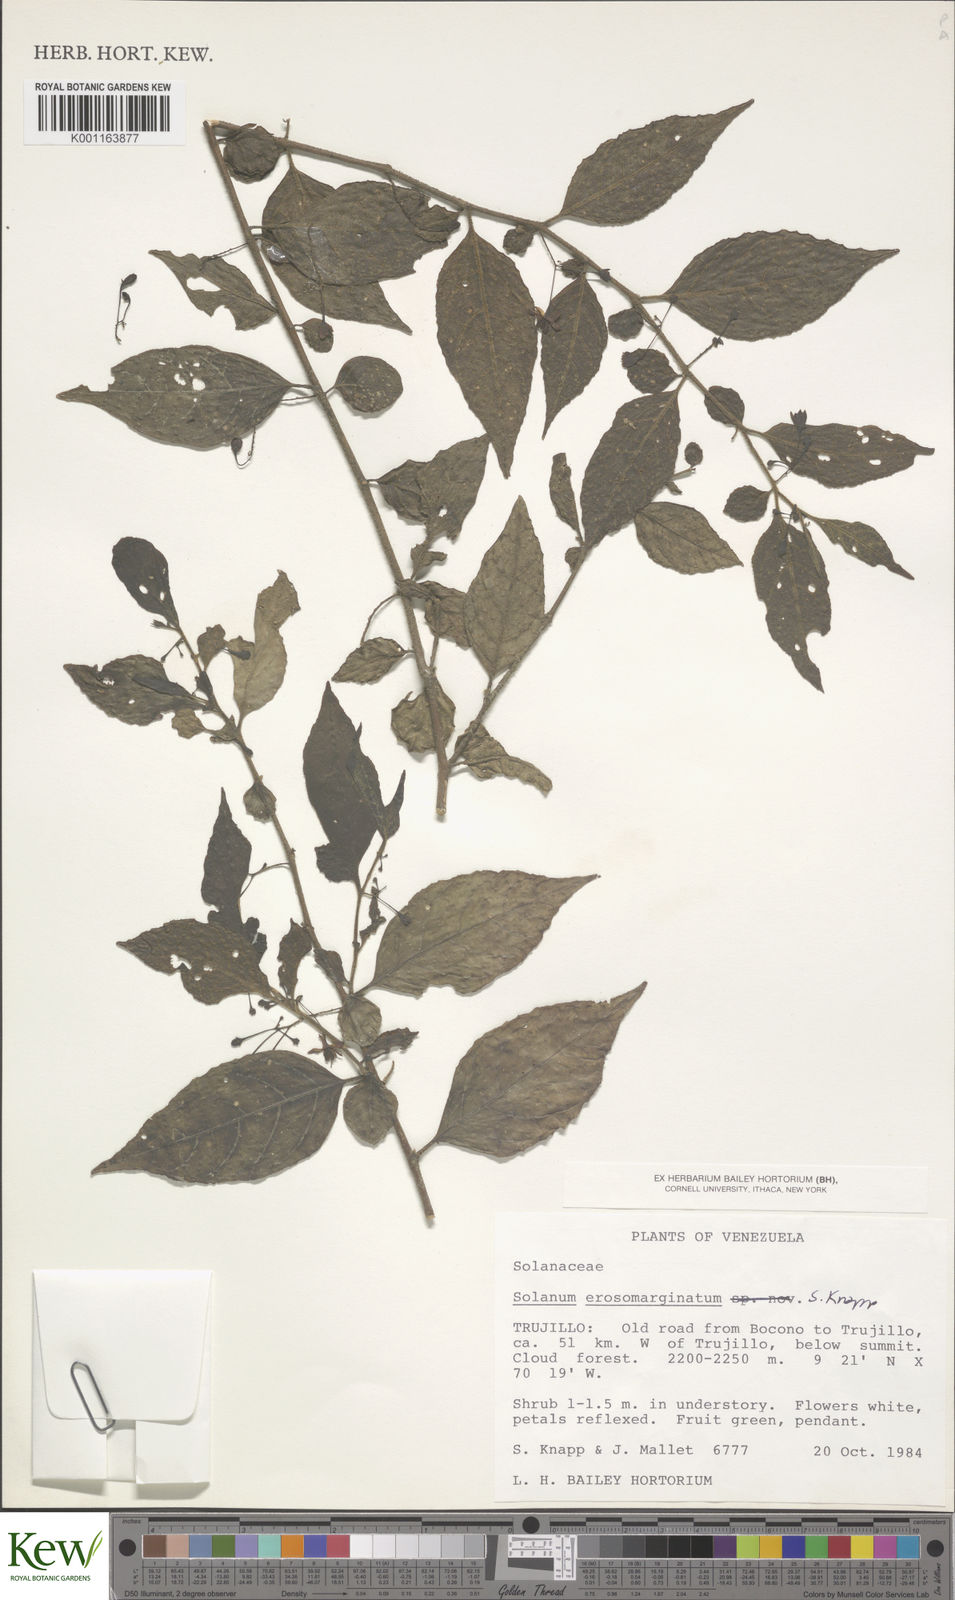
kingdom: Plantae
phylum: Tracheophyta
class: Magnoliopsida
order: Solanales
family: Solanaceae
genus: Solanum
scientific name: Solanum erosomarginatum
